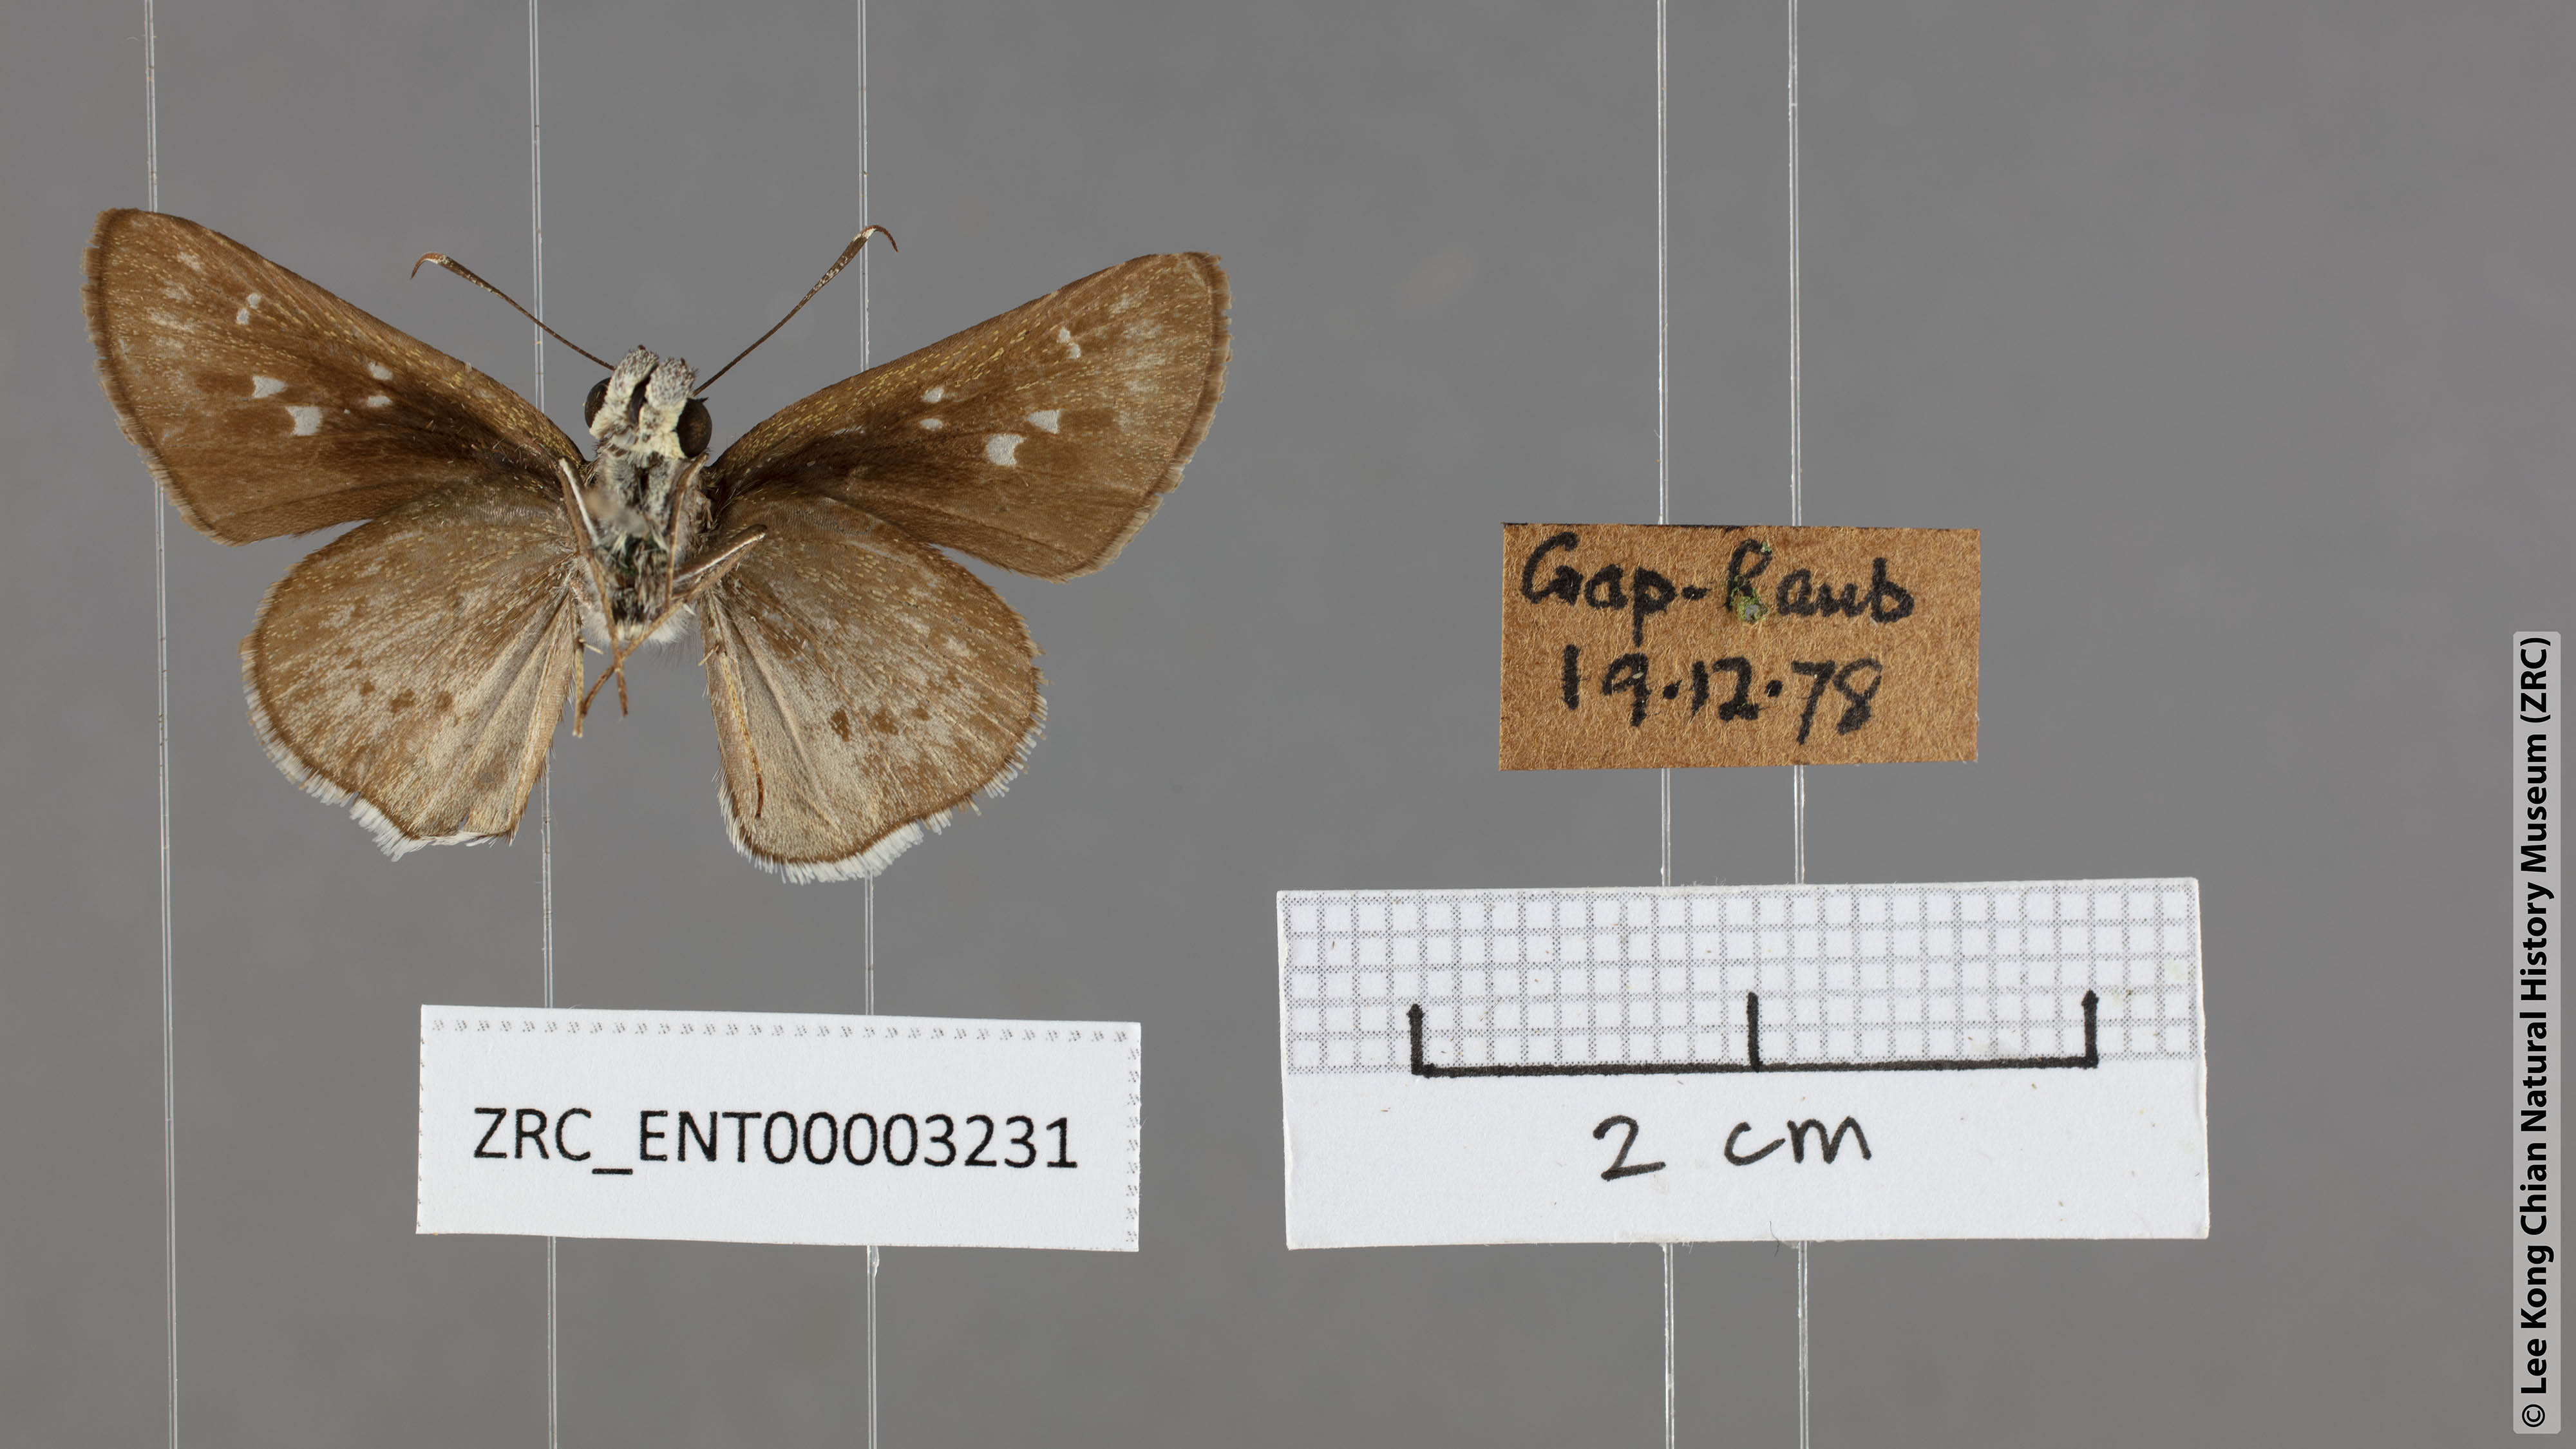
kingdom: Animalia
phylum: Arthropoda
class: Insecta
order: Lepidoptera
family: Hesperiidae
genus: Halpe
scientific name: Halpe insignis
